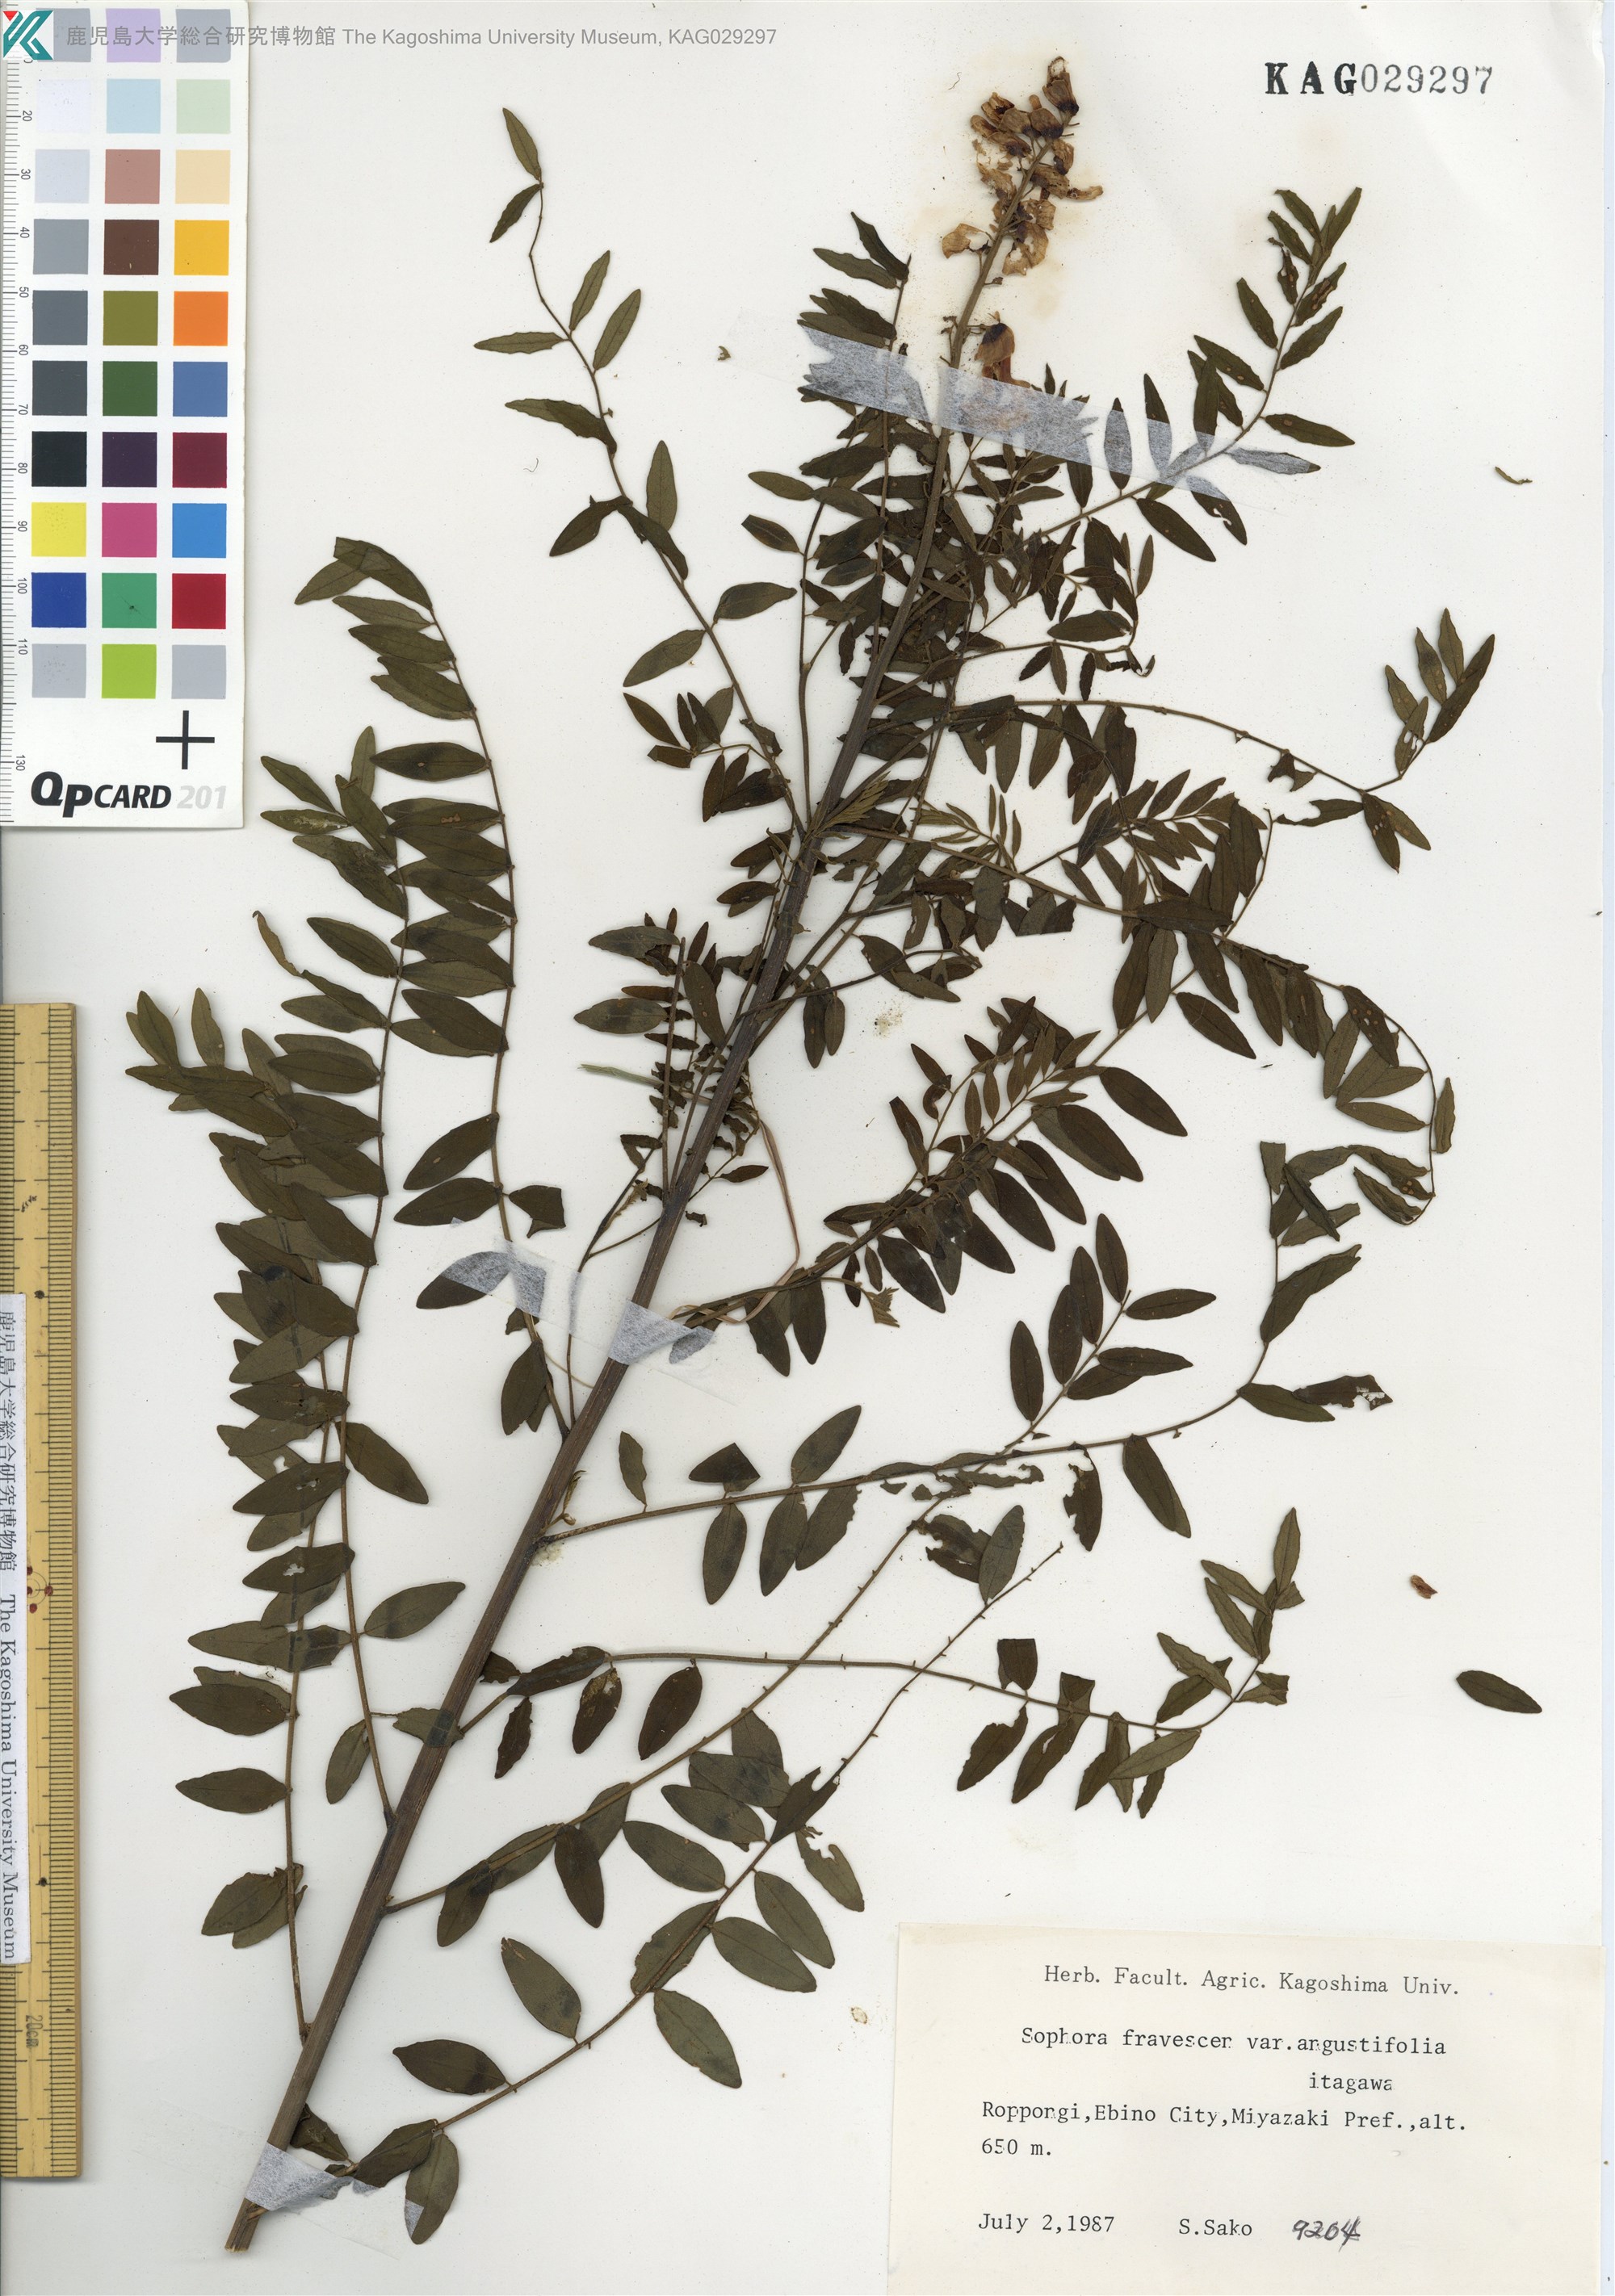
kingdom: Plantae
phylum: Tracheophyta
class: Magnoliopsida
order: Fabales
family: Fabaceae
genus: Sophora
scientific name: Sophora flavescens
